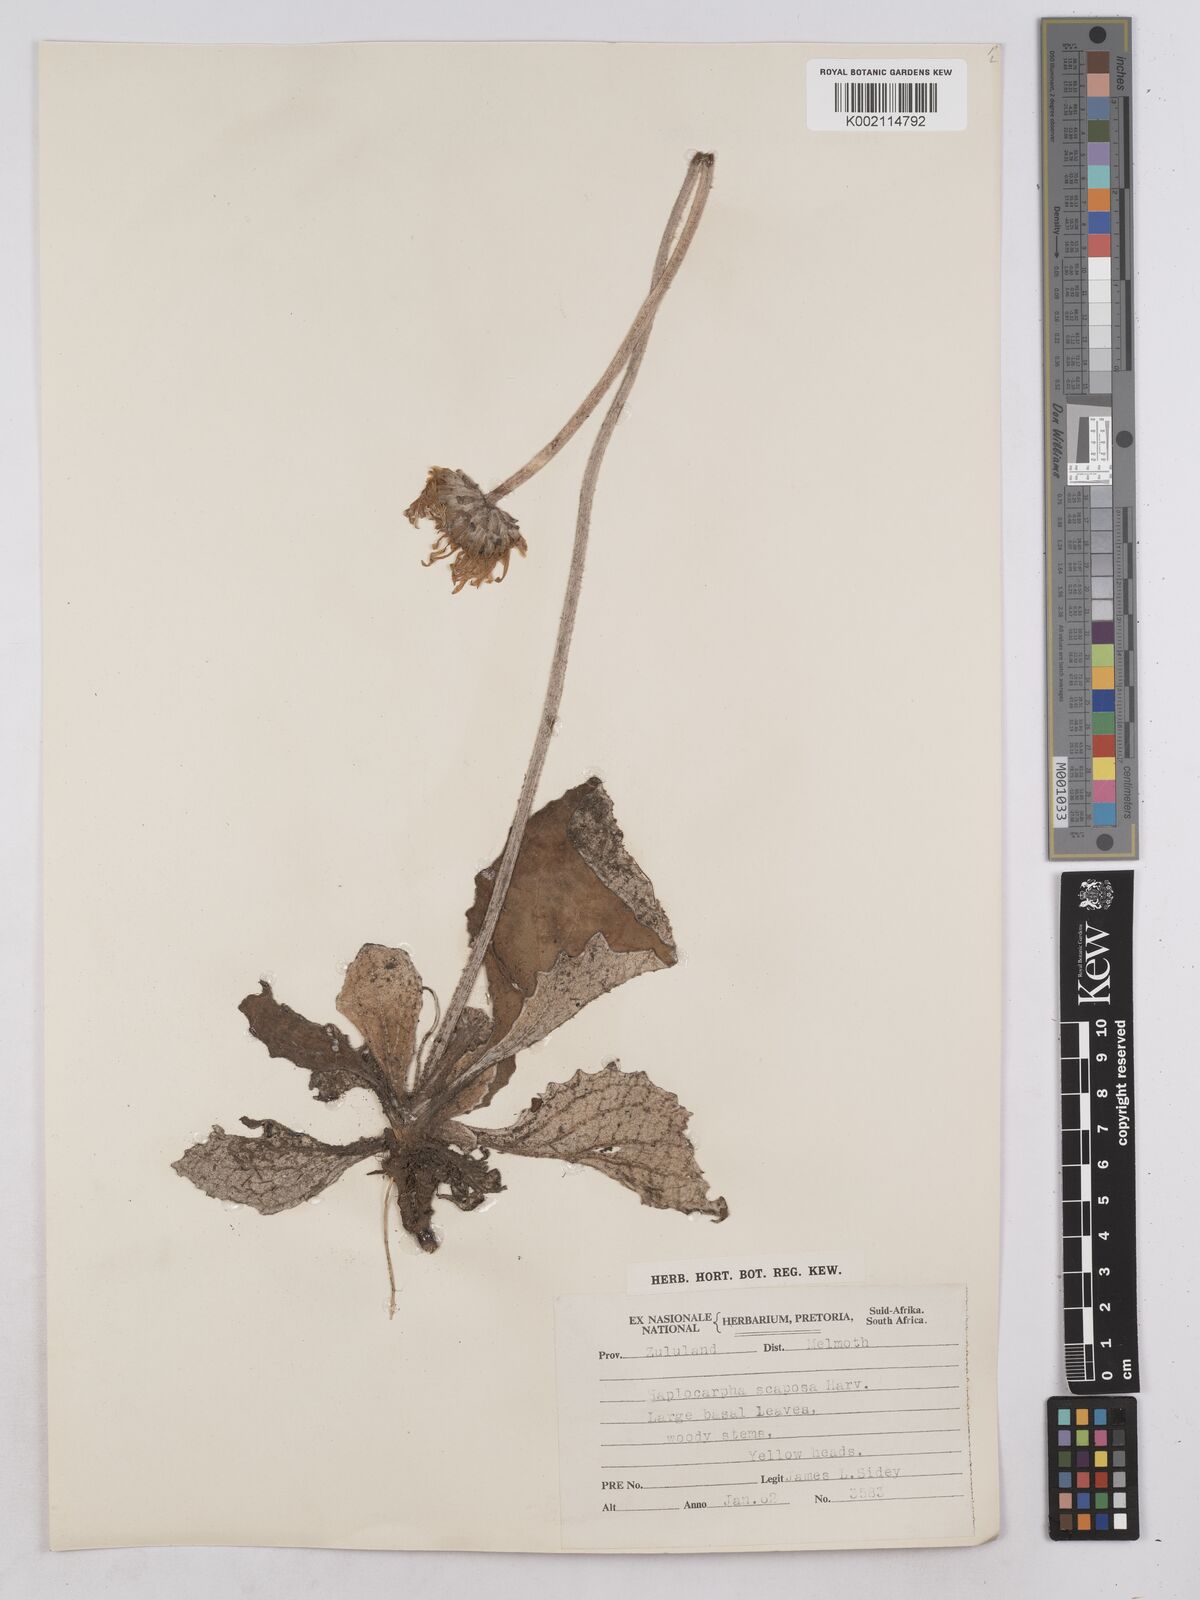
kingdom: Plantae
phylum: Tracheophyta
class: Magnoliopsida
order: Asterales
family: Asteraceae
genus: Haplocarpha
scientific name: Haplocarpha scaposa
